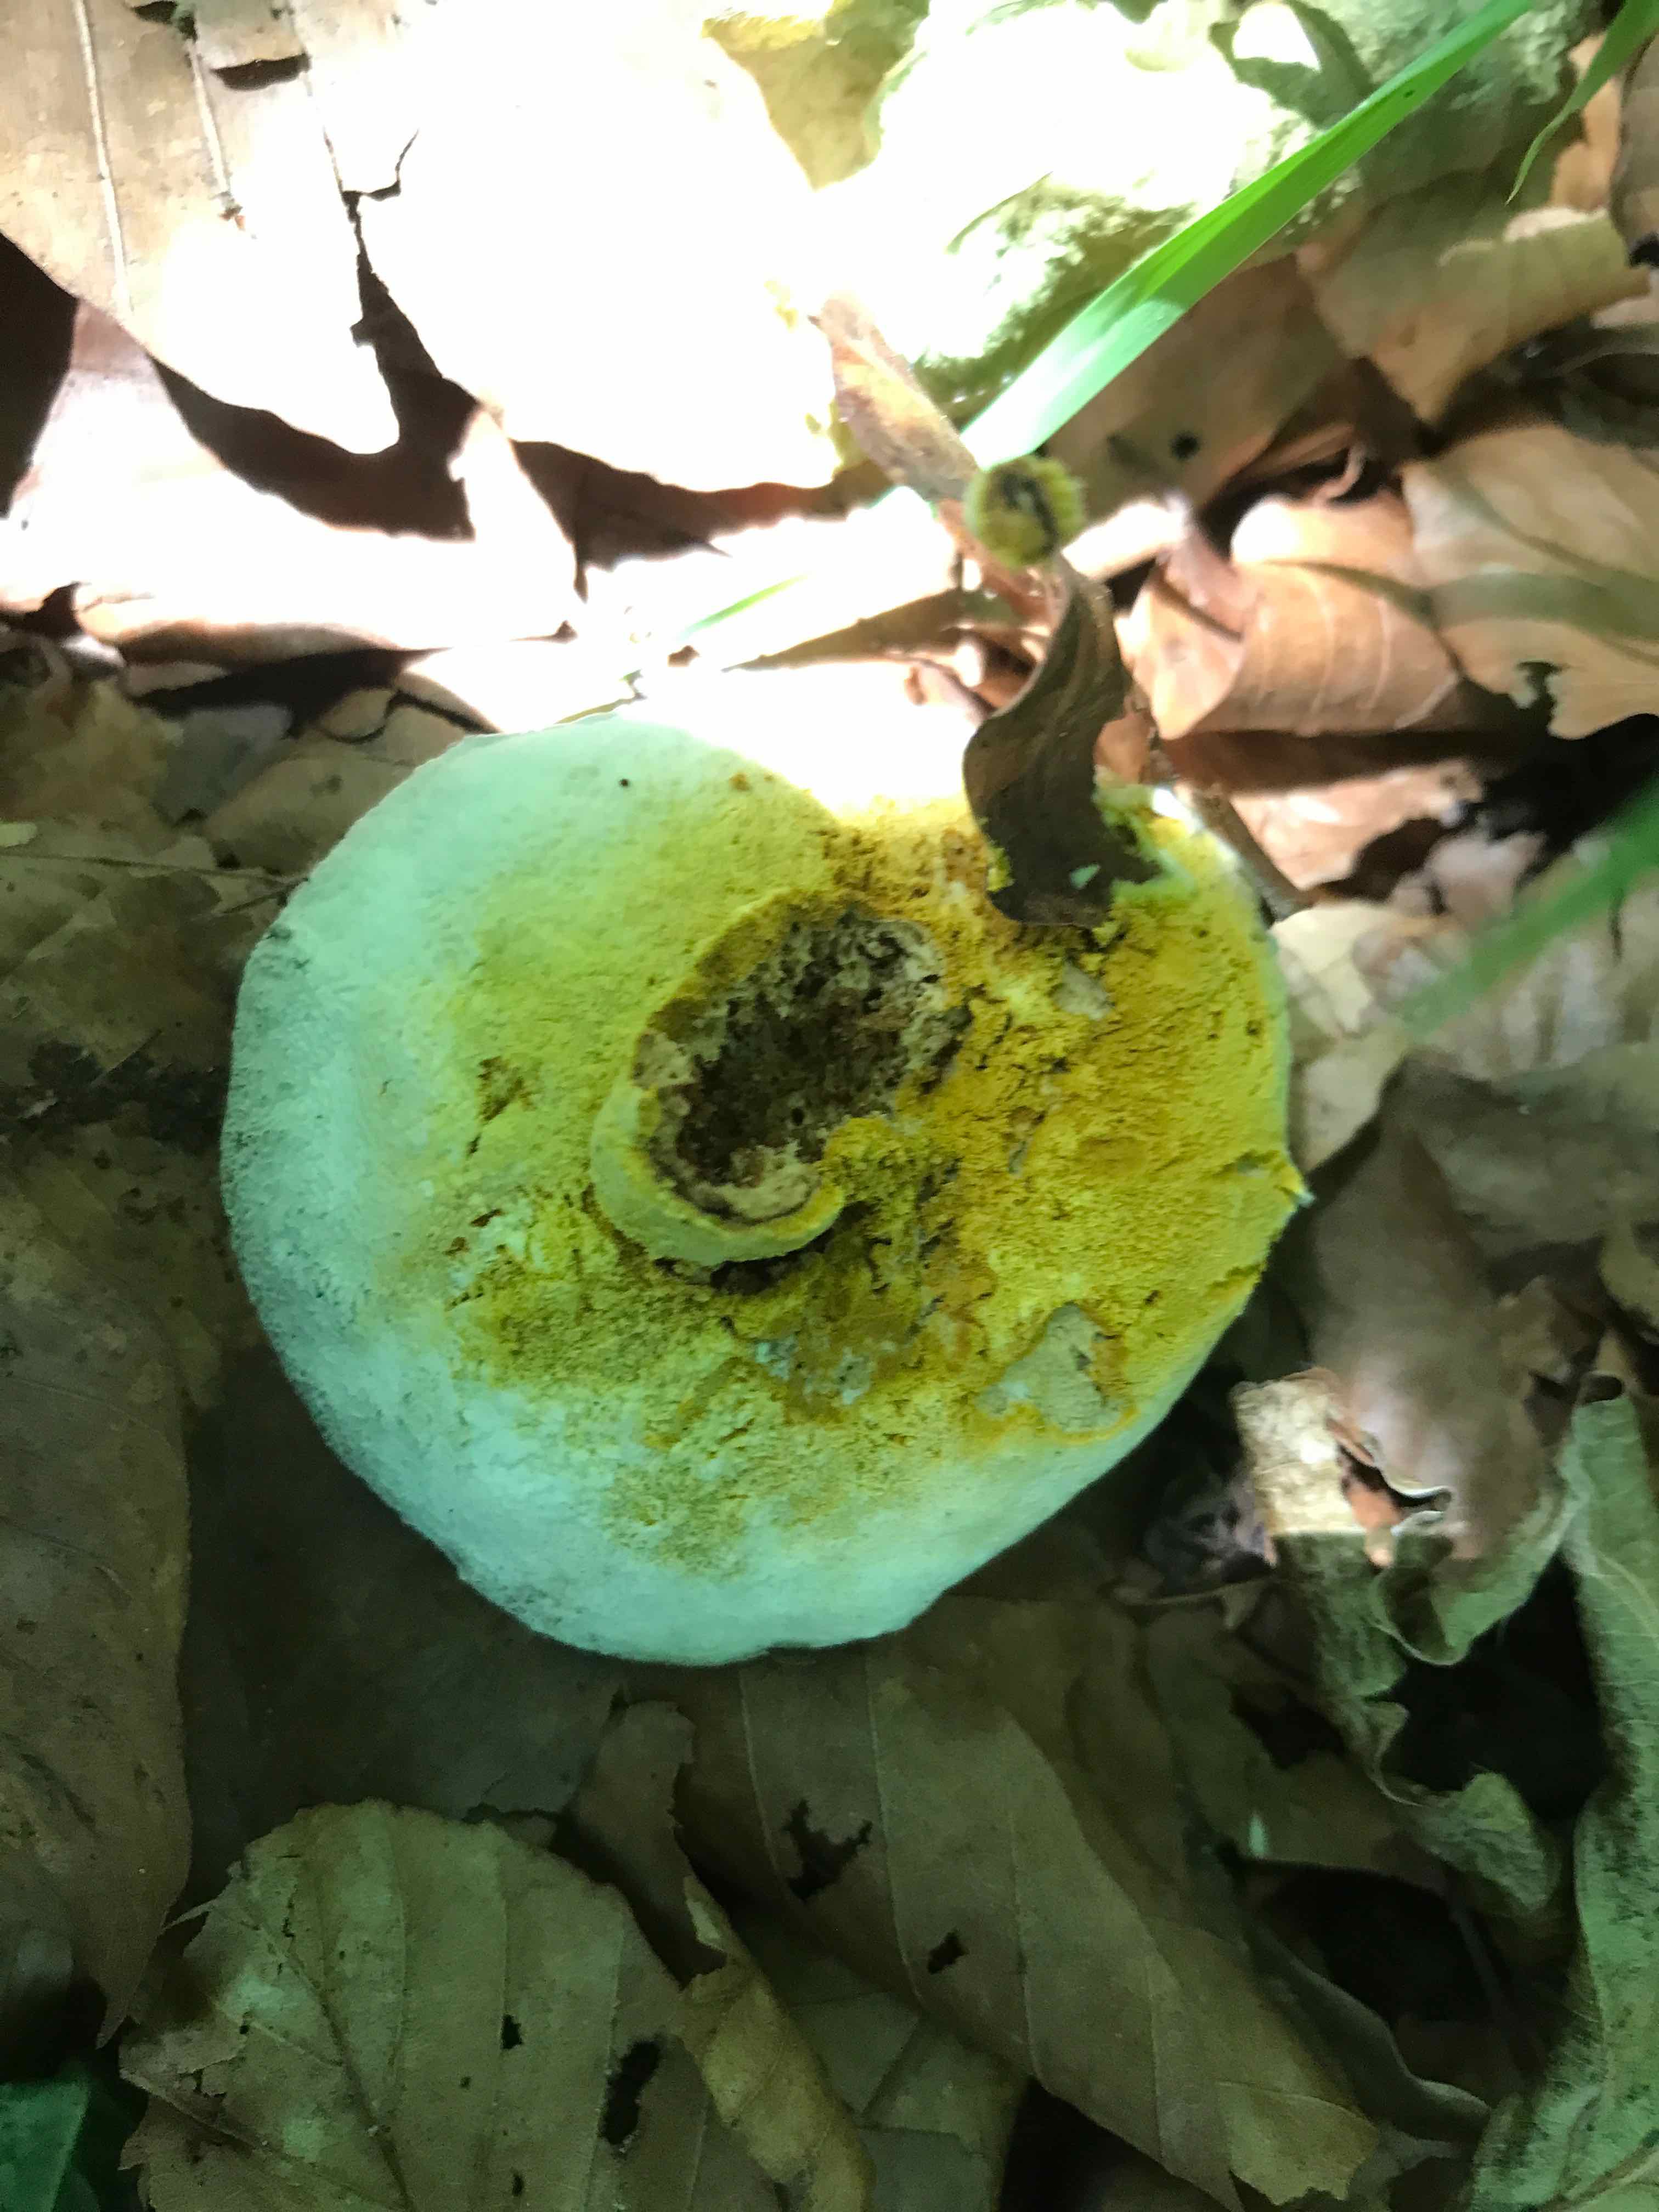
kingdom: Fungi
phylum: Ascomycota
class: Sordariomycetes
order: Hypocreales
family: Hypocreaceae
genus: Hypomyces
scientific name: Hypomyces microspermus
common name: dværgrørhat-snylteskorpe
